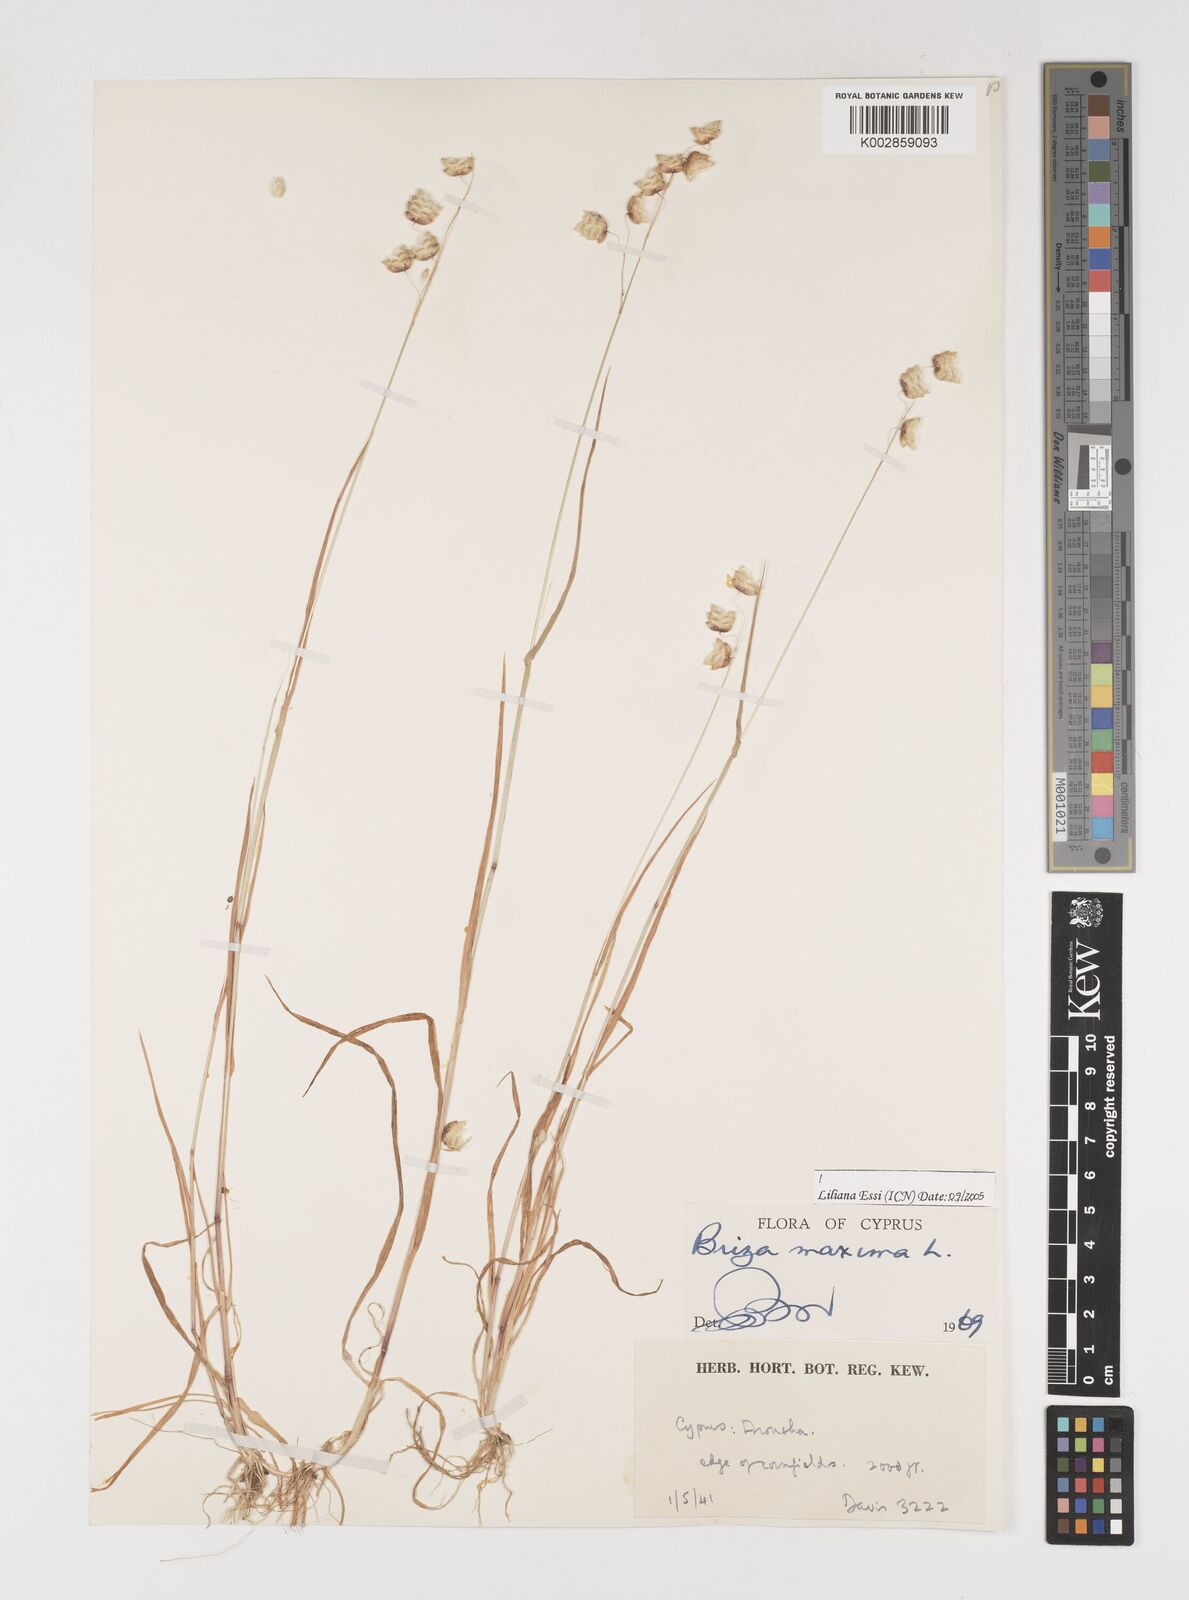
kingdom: Plantae
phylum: Tracheophyta
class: Liliopsida
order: Poales
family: Poaceae
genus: Briza
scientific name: Briza maxima
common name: Big quakinggrass
